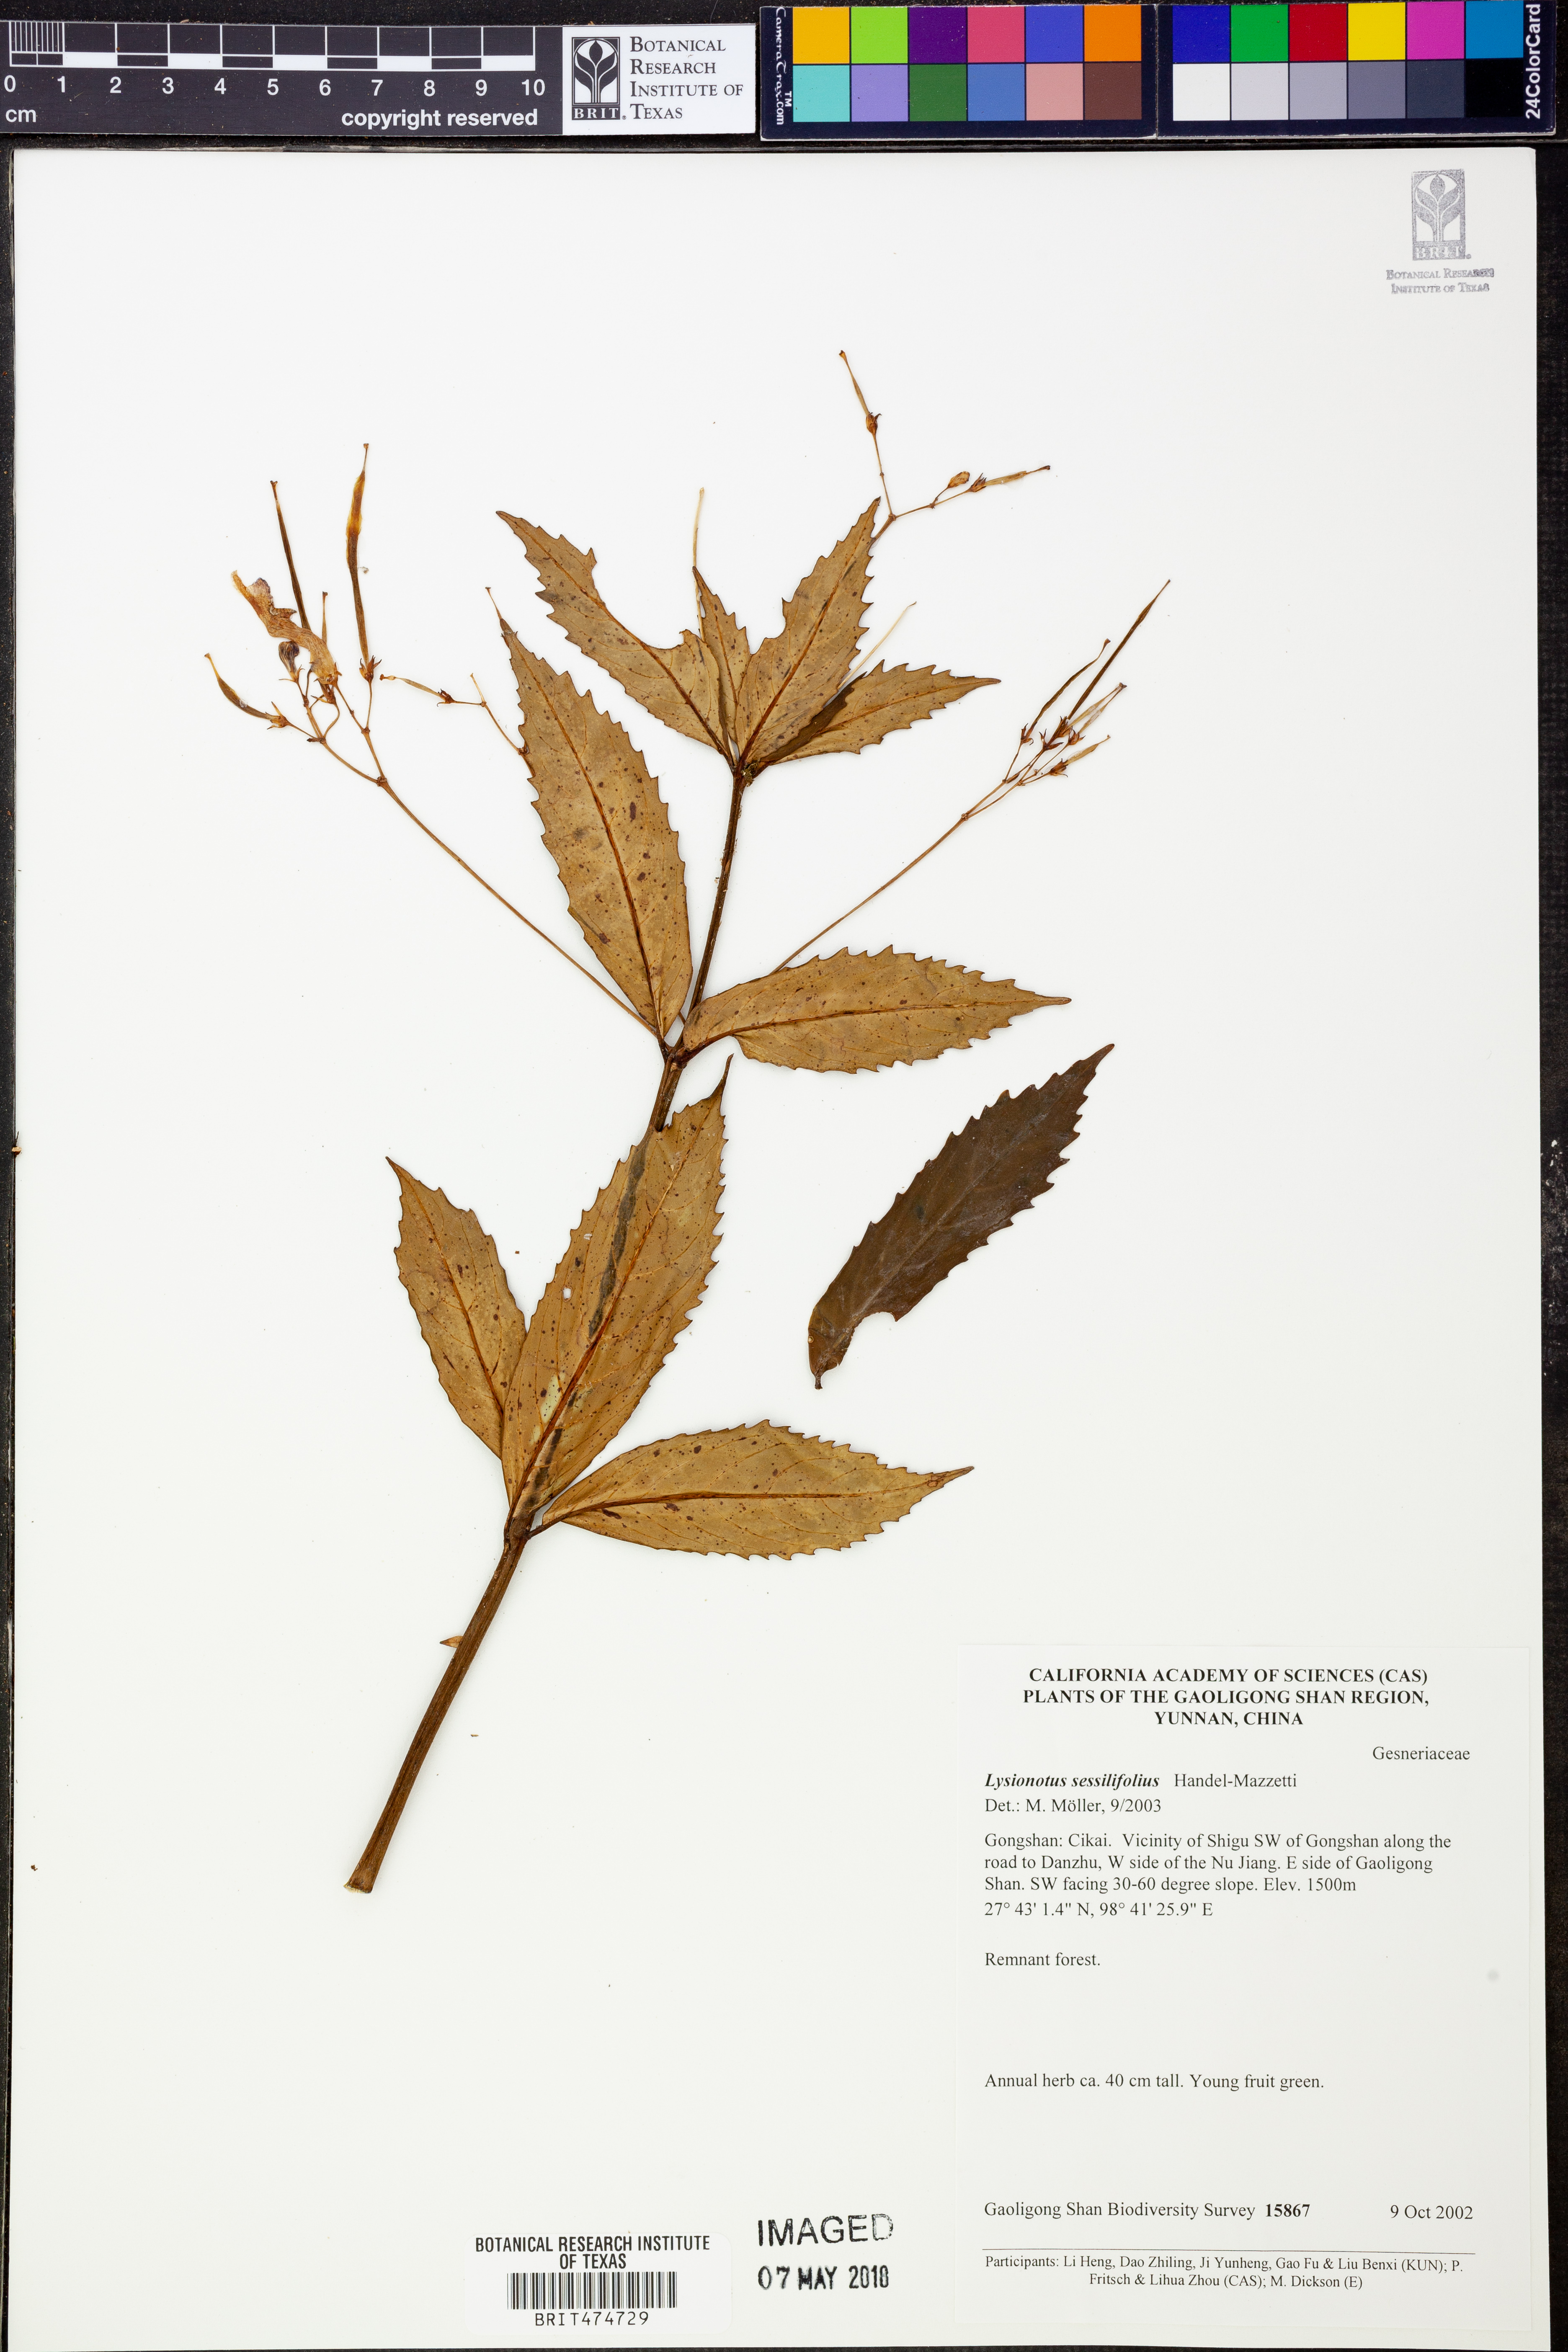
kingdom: Plantae
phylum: Tracheophyta
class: Magnoliopsida
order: Lamiales
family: Gesneriaceae
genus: Lysionotus
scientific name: Lysionotus sessilifolius
